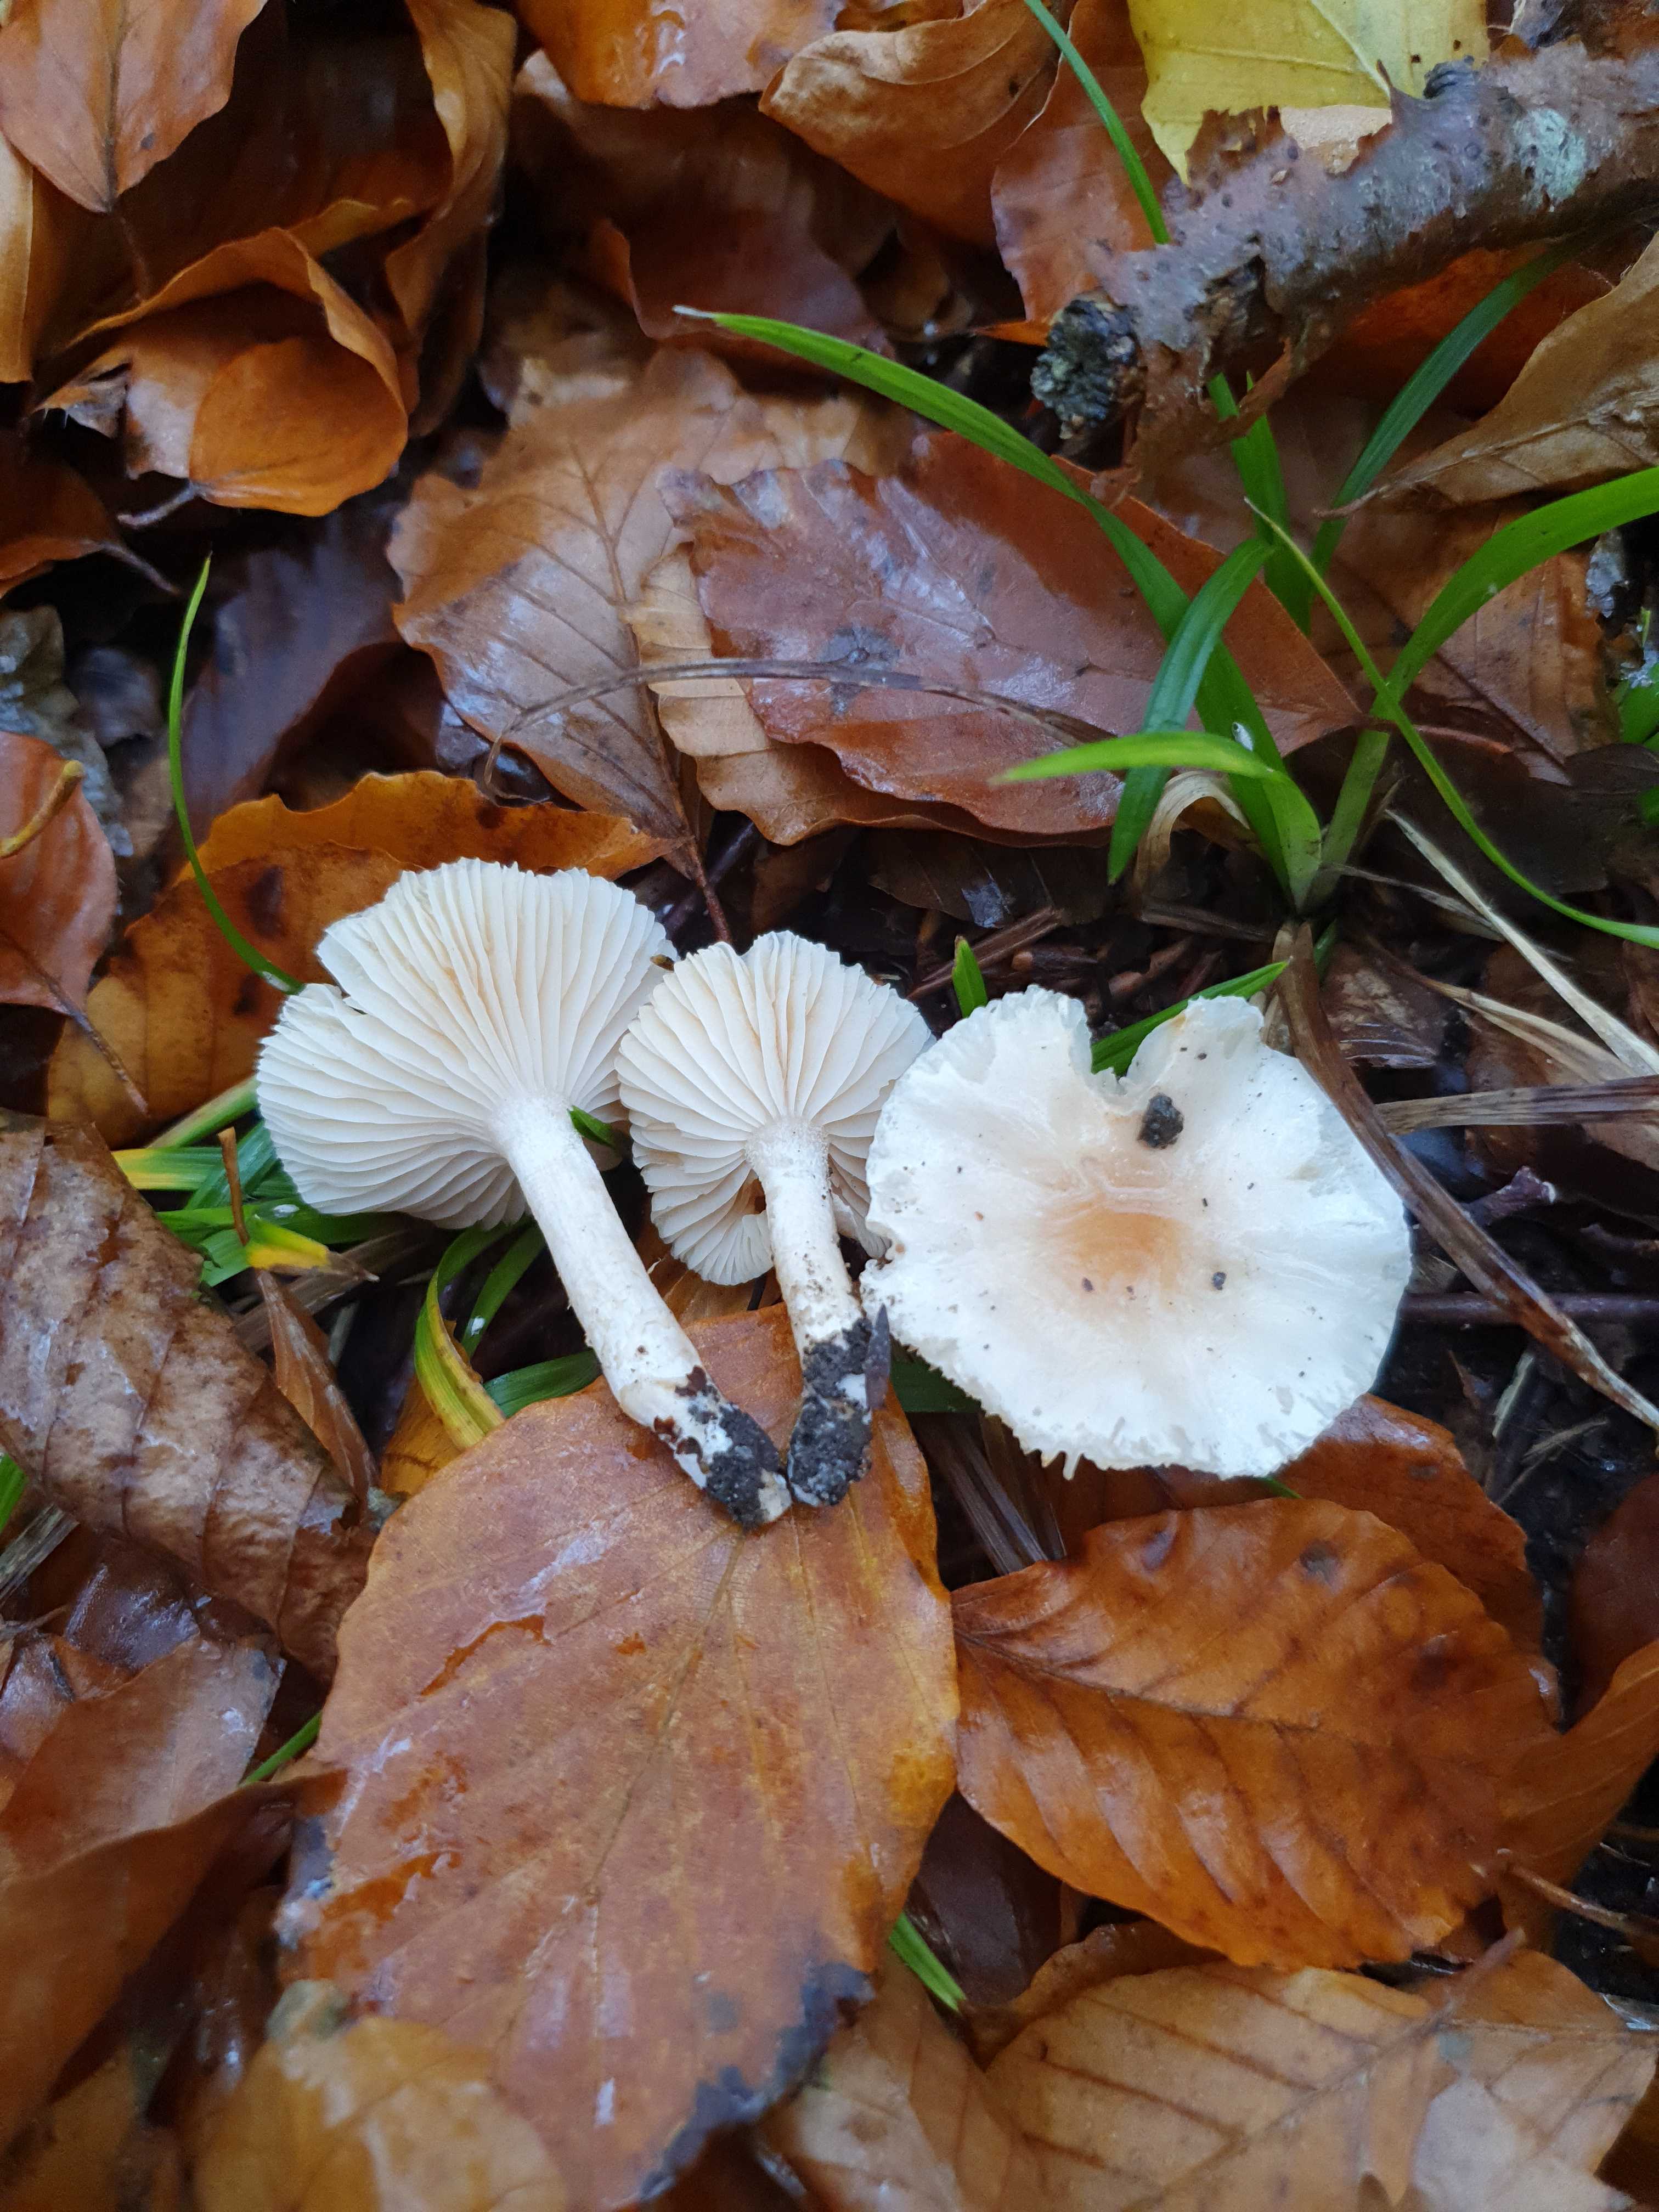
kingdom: Fungi
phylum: Basidiomycota
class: Agaricomycetes
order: Agaricales
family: Hygrophoraceae
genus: Hygrophorus
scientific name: Hygrophorus unicolor
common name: orangeøjet sneglehat
